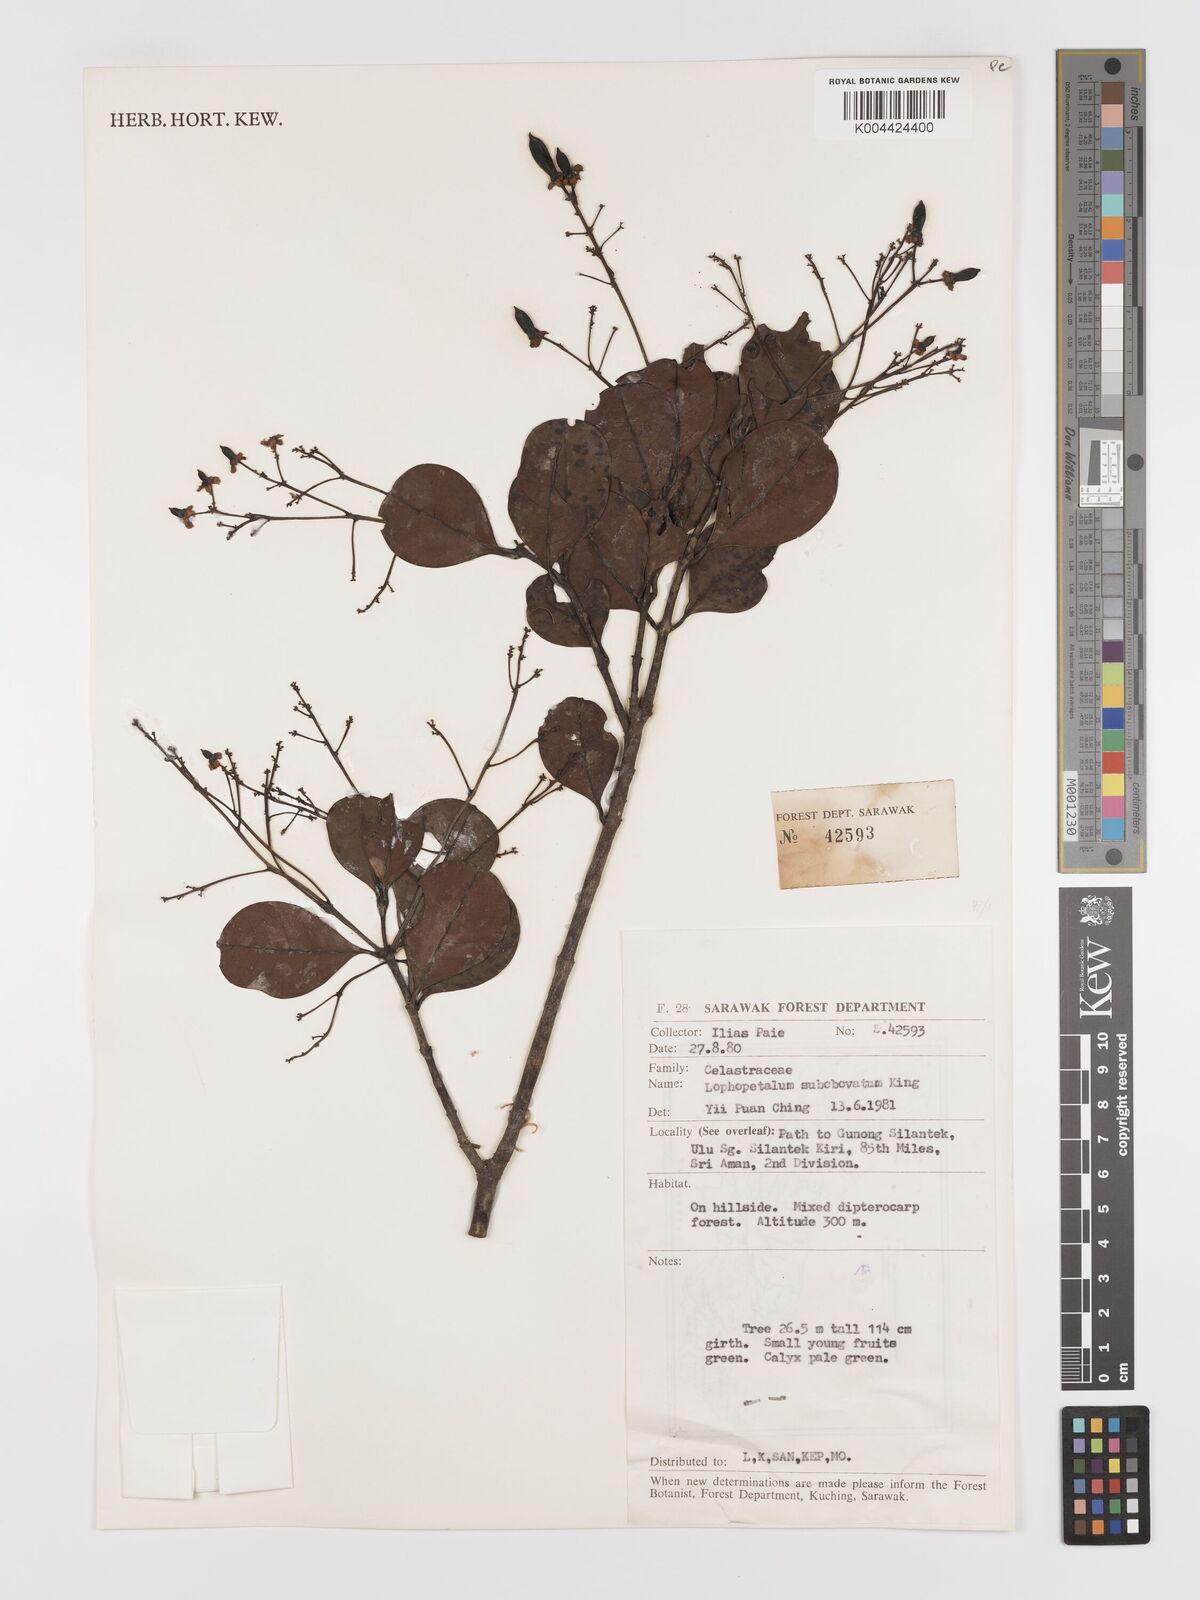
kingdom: Plantae
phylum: Tracheophyta
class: Magnoliopsida
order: Celastrales
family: Celastraceae
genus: Lophopetalum
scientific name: Lophopetalum
